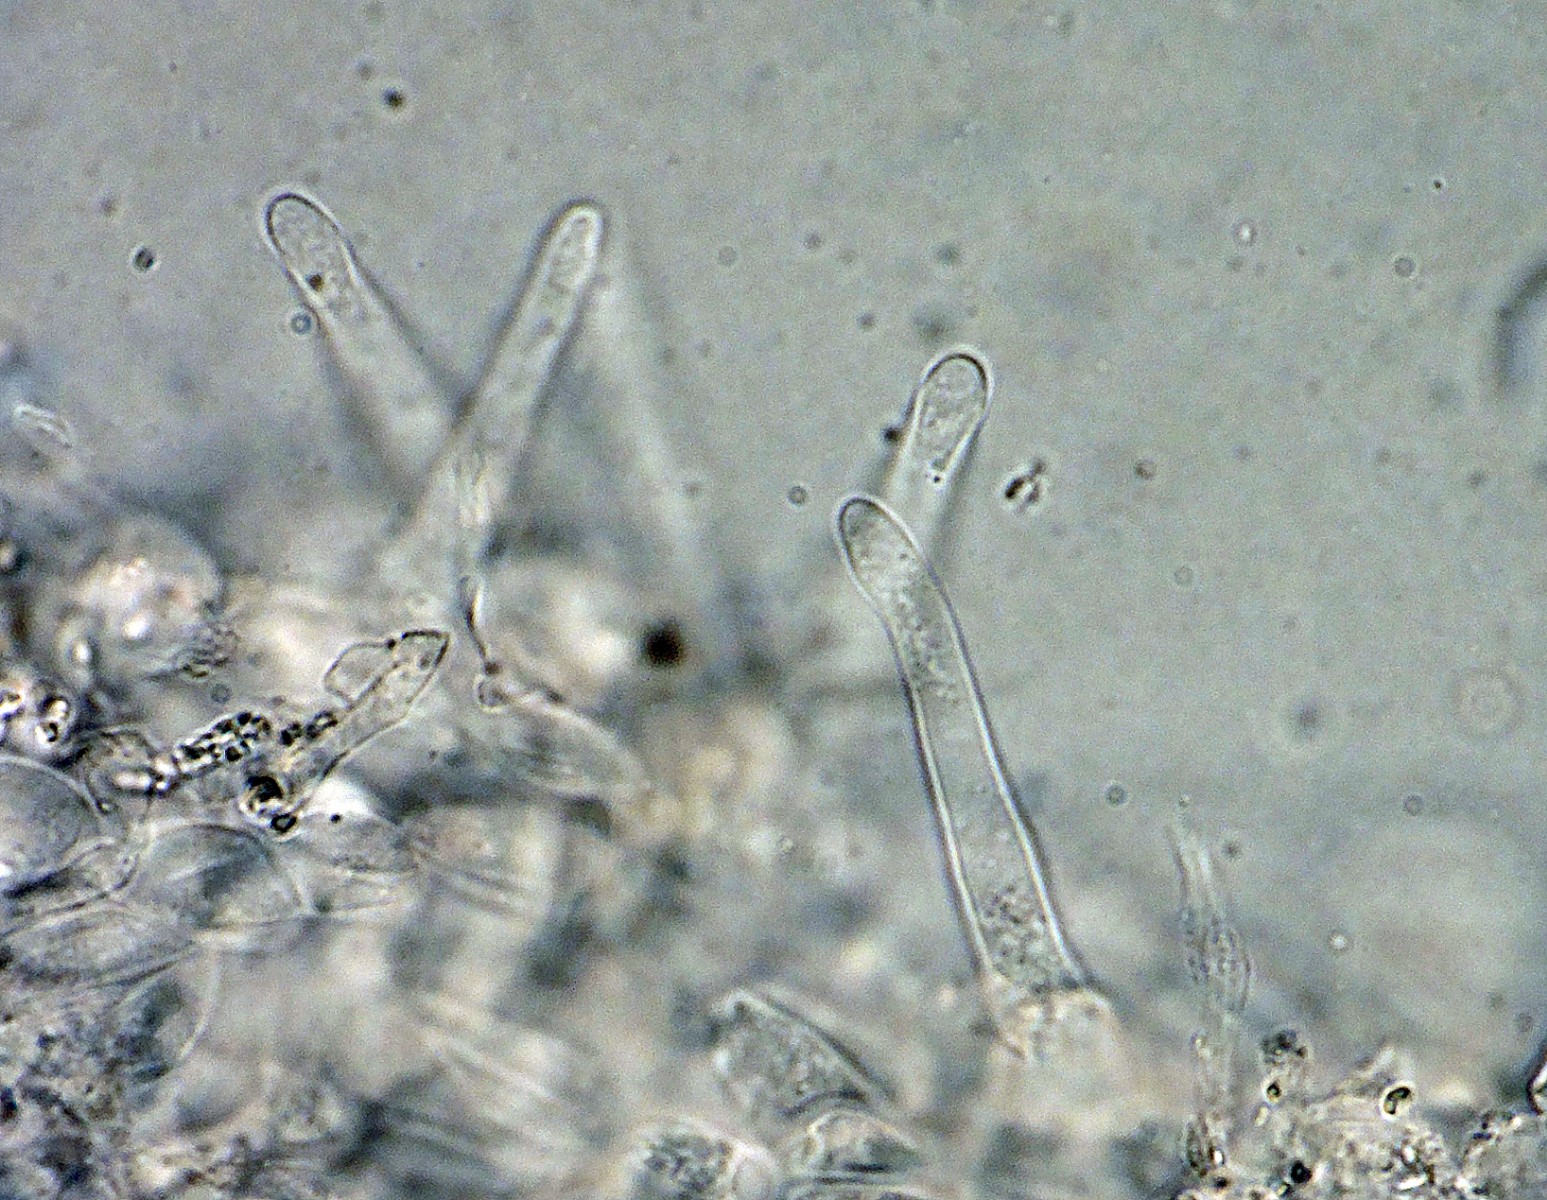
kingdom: Fungi
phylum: Basidiomycota
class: Agaricomycetes
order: Agaricales
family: Psathyrellaceae
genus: Tulosesus
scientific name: Tulosesus heterosetulosus
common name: forskellighåret blækhat
